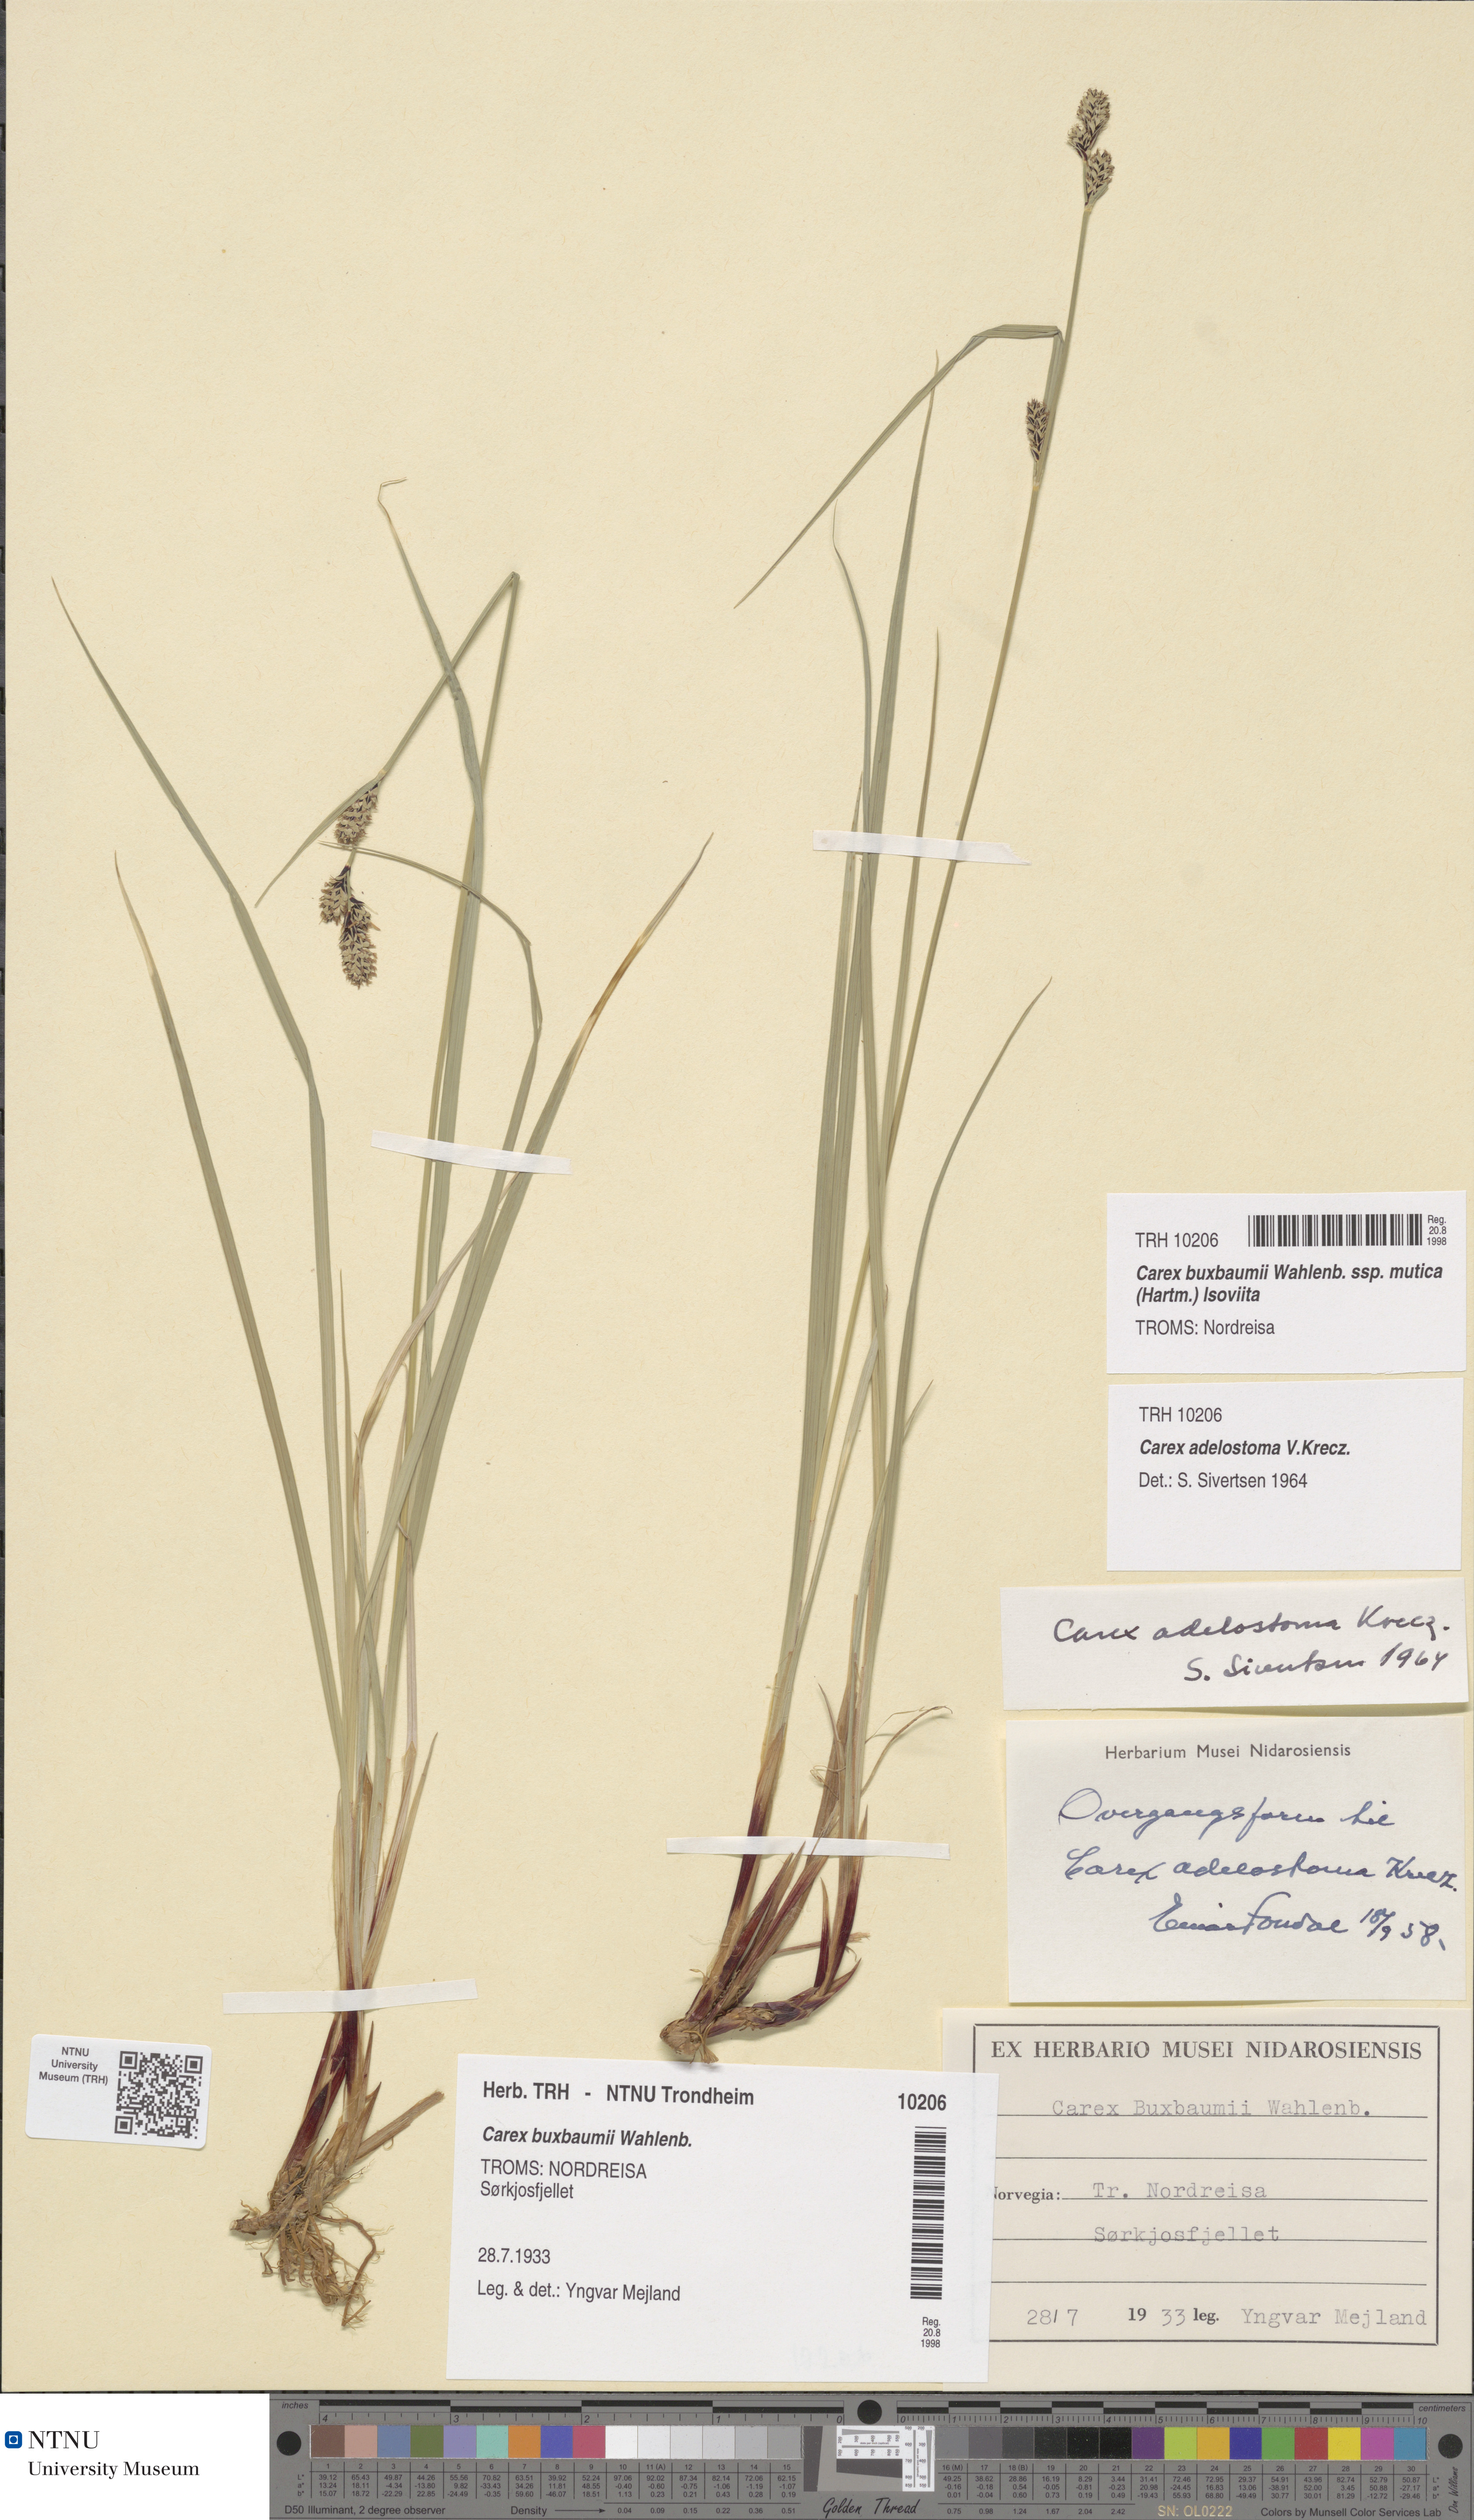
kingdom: Plantae
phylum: Tracheophyta
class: Liliopsida
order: Poales
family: Cyperaceae
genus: Carex
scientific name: Carex adelostoma
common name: Circumpolar sedge
